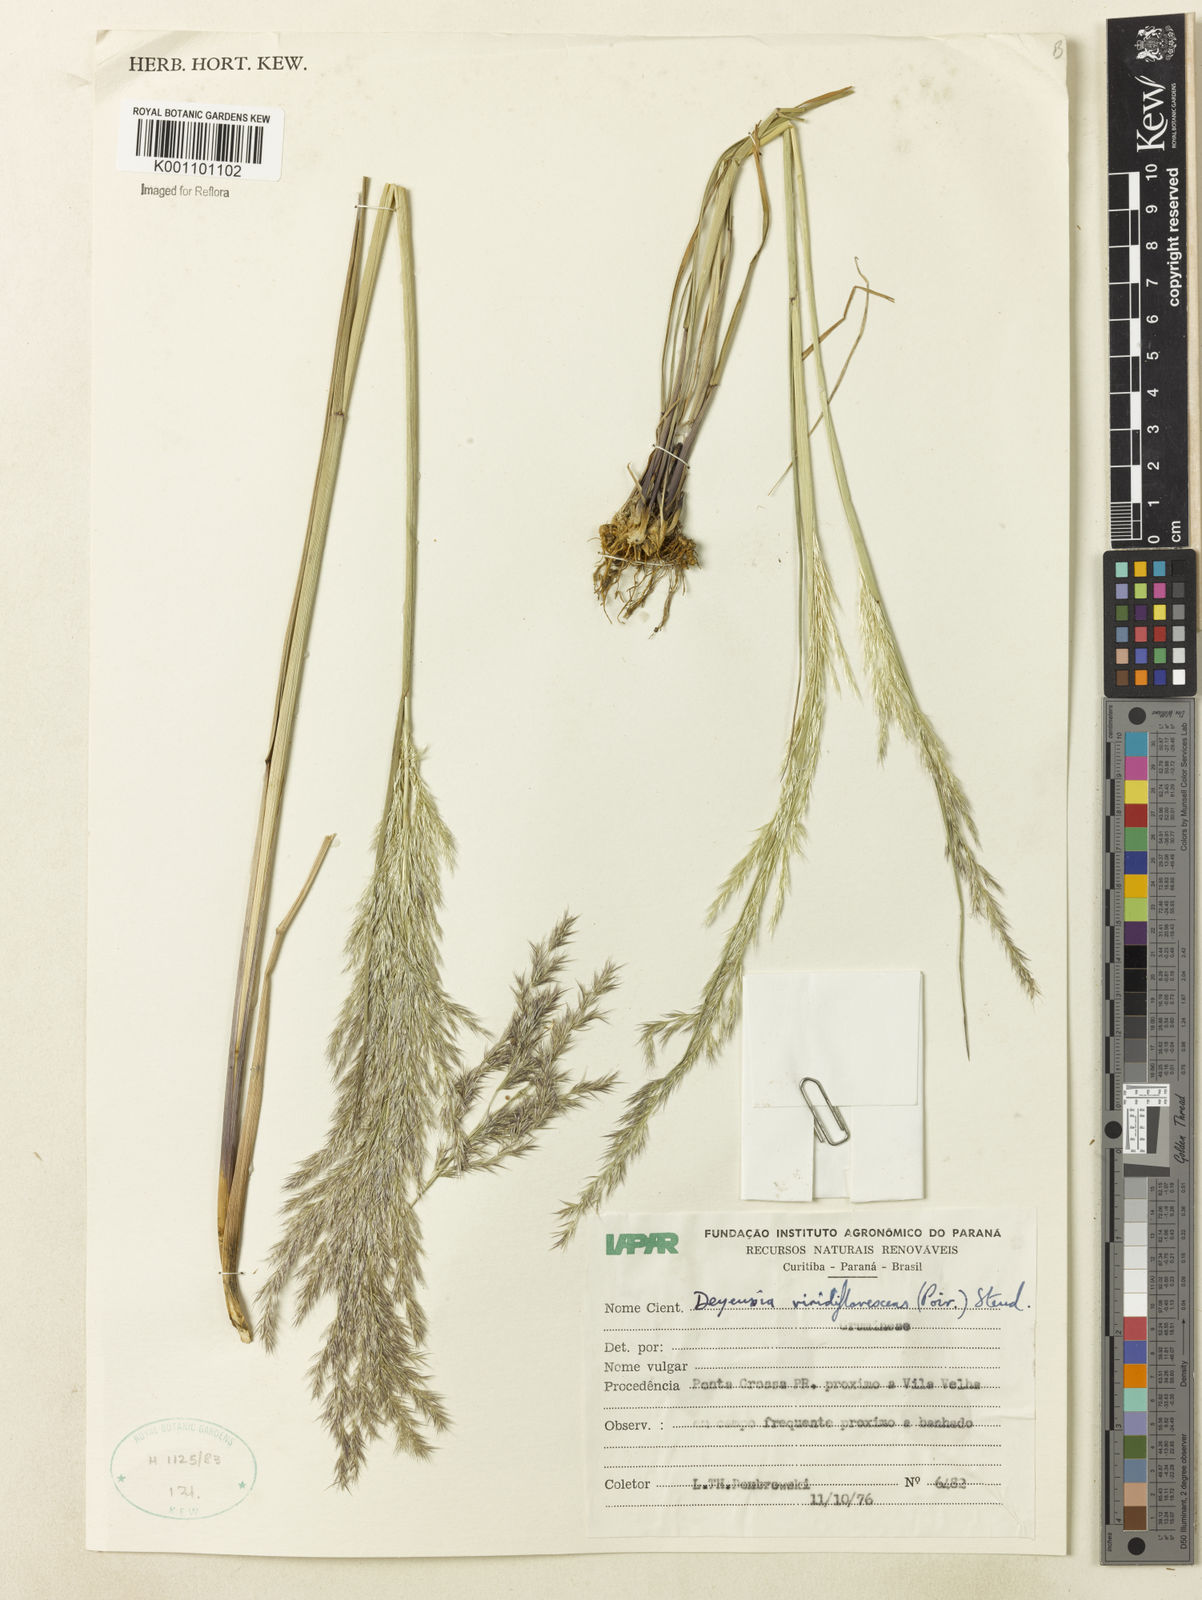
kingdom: Plantae
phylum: Tracheophyta
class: Liliopsida
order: Poales
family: Poaceae
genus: Cinnagrostis
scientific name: Cinnagrostis viridiflavescens
